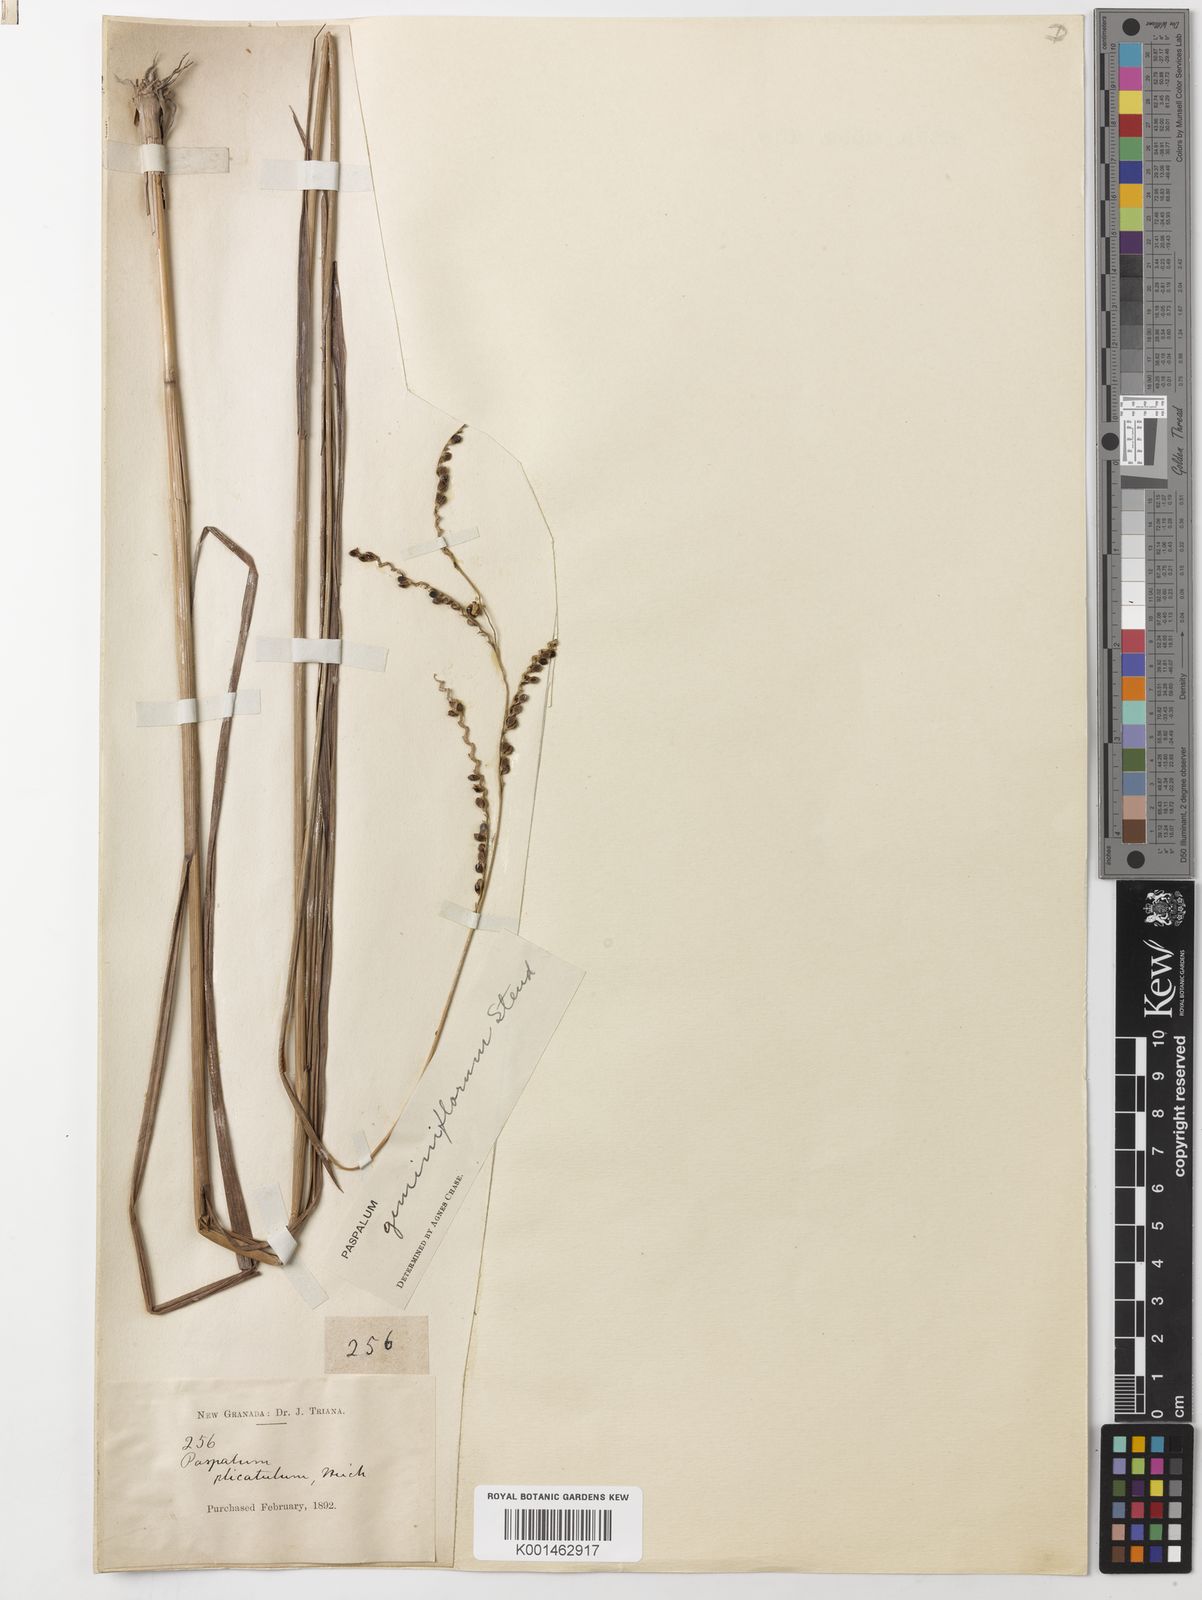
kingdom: Plantae
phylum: Tracheophyta
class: Liliopsida
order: Poales
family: Poaceae
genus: Paspalum
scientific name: Paspalum geminiflorum
